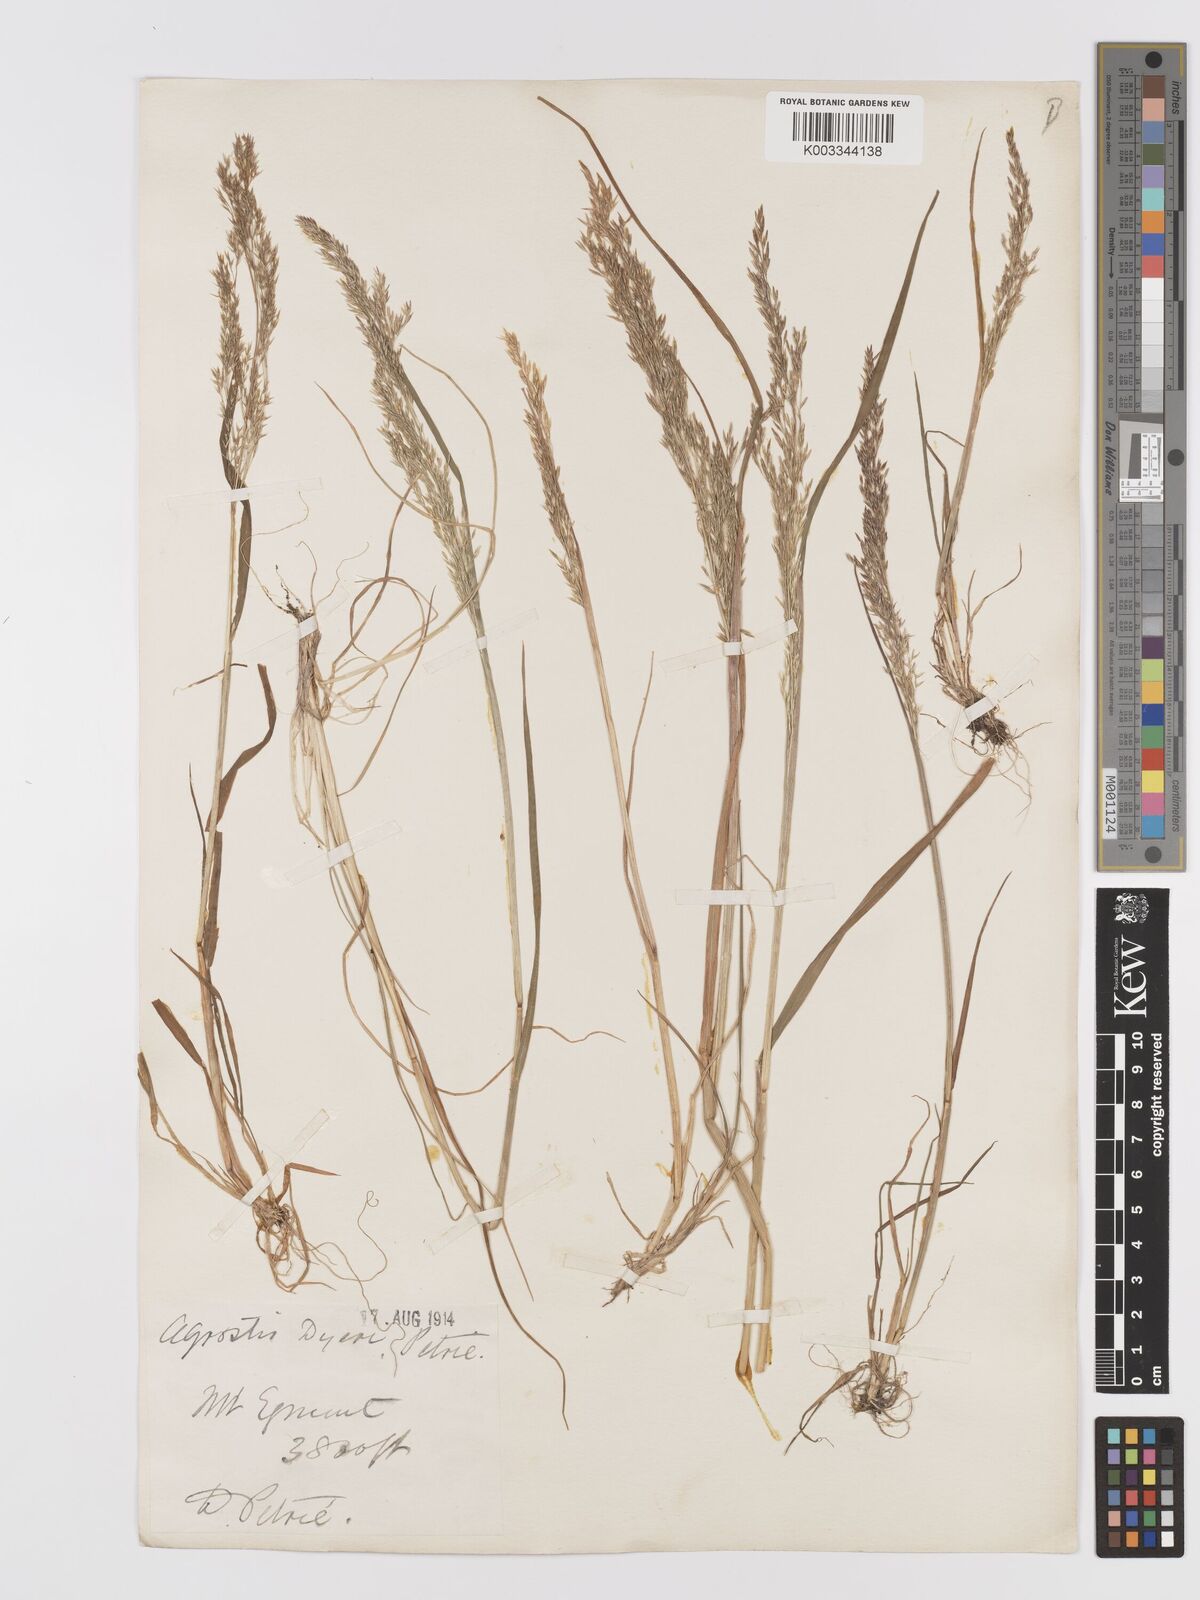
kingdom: Plantae
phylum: Tracheophyta
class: Liliopsida
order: Poales
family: Poaceae
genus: Agrostis
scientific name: Agrostis dyeri
